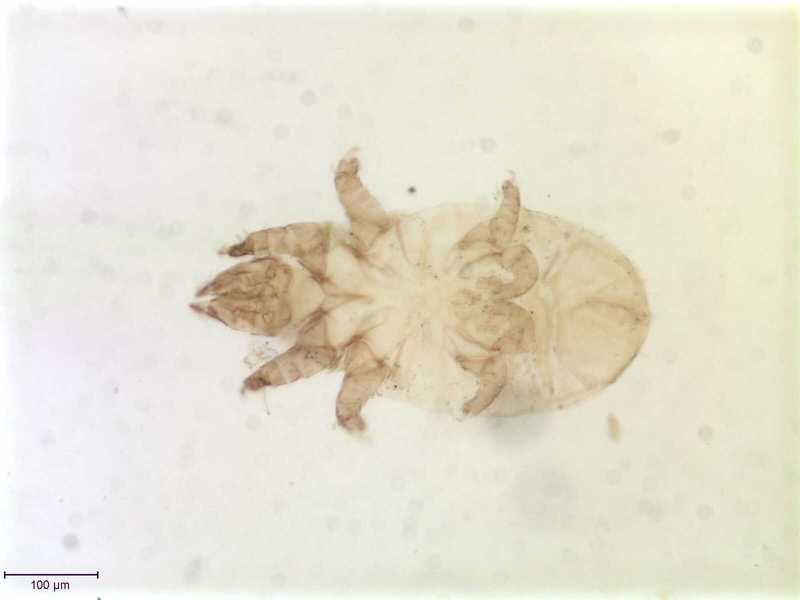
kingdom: Animalia
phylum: Arthropoda
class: Arachnida
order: Sarcoptiformes
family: Acaridae
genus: Schwiebea
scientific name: Schwiebea cavernicola
